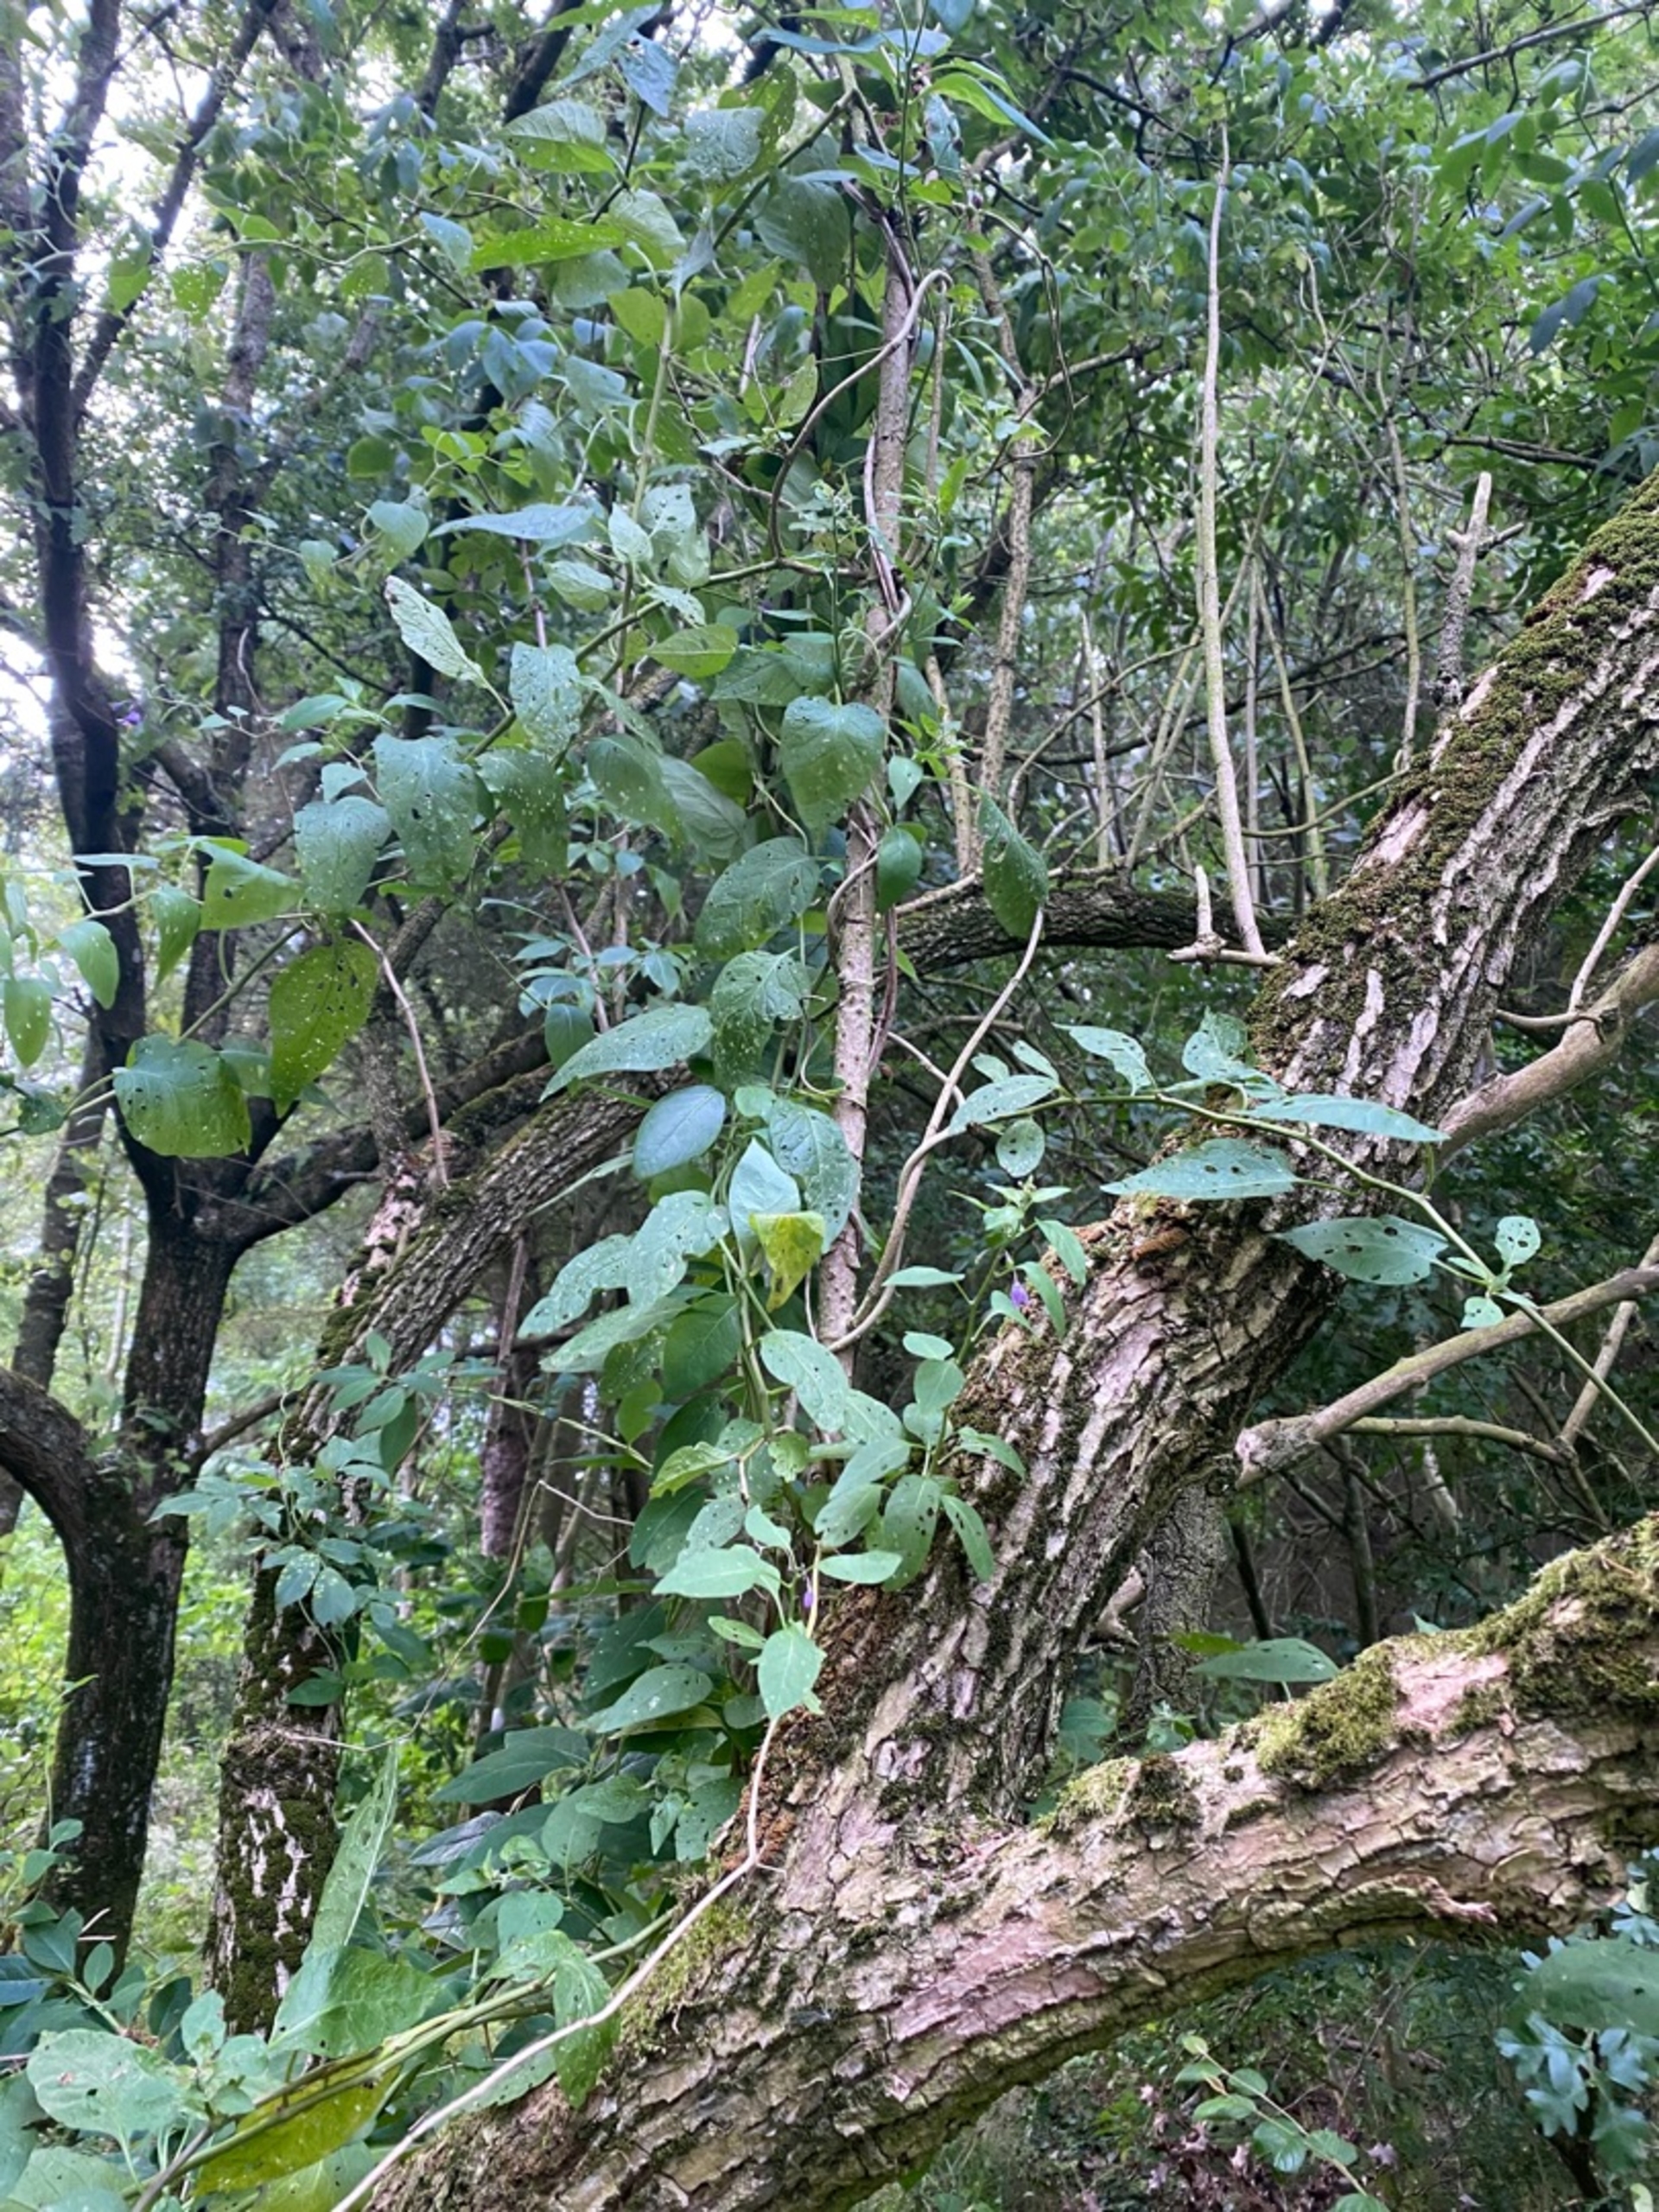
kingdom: Plantae
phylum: Tracheophyta
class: Magnoliopsida
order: Solanales
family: Solanaceae
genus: Solanum
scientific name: Solanum dulcamara
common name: Bittersød natskygge (varietet)
